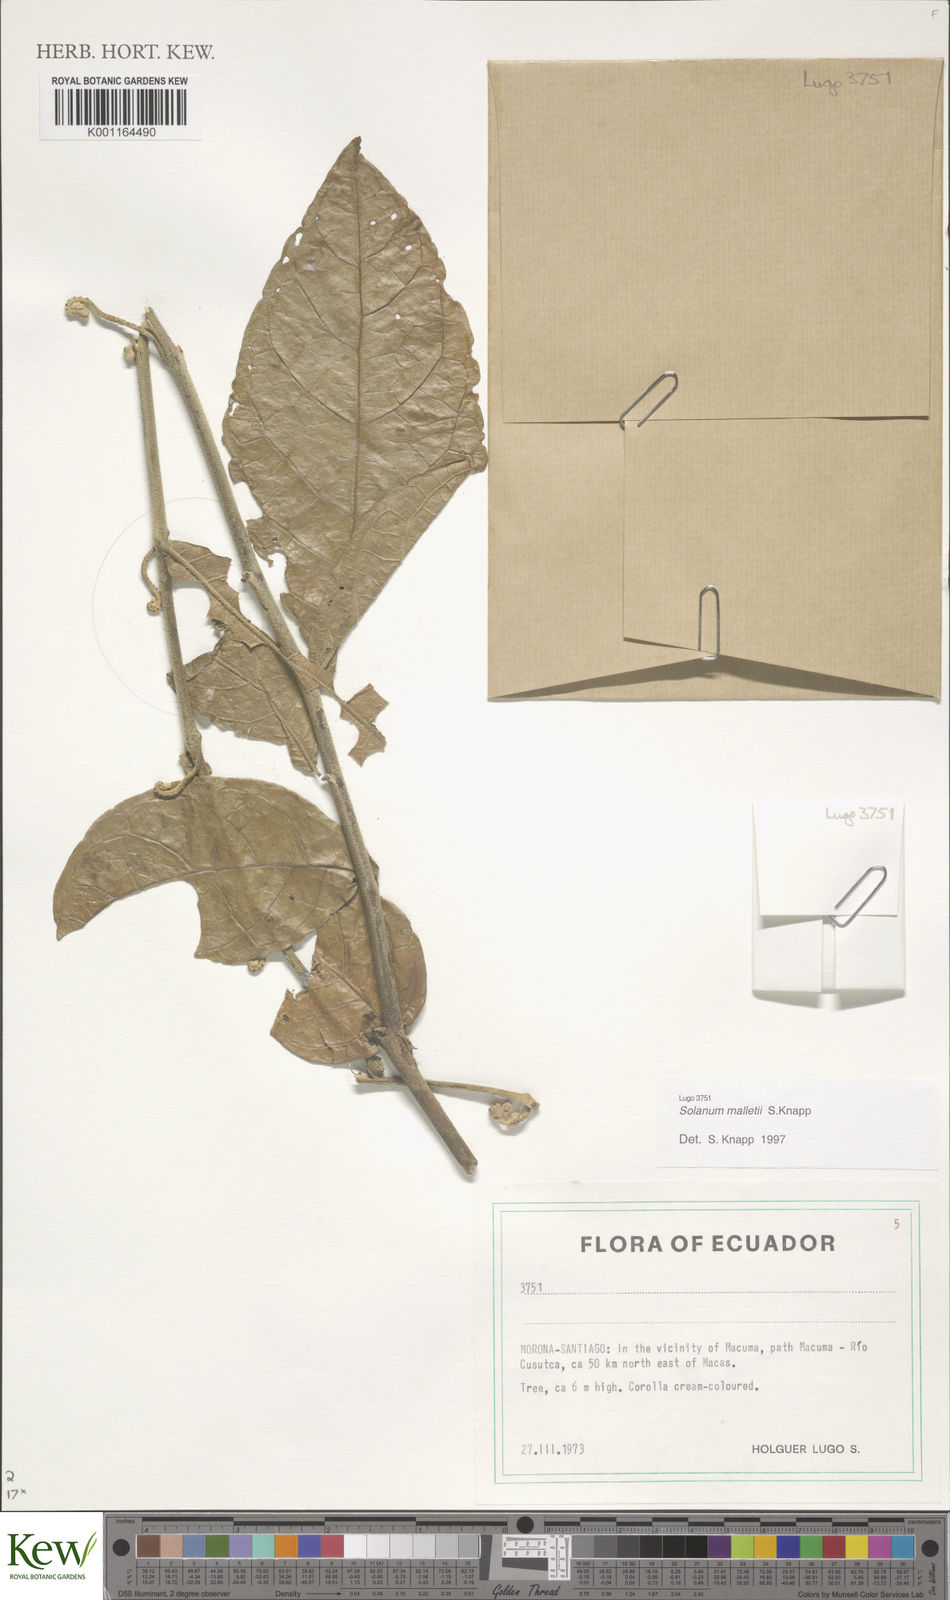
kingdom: Plantae
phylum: Tracheophyta
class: Magnoliopsida
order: Solanales
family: Solanaceae
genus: Solanum
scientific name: Solanum malletii
